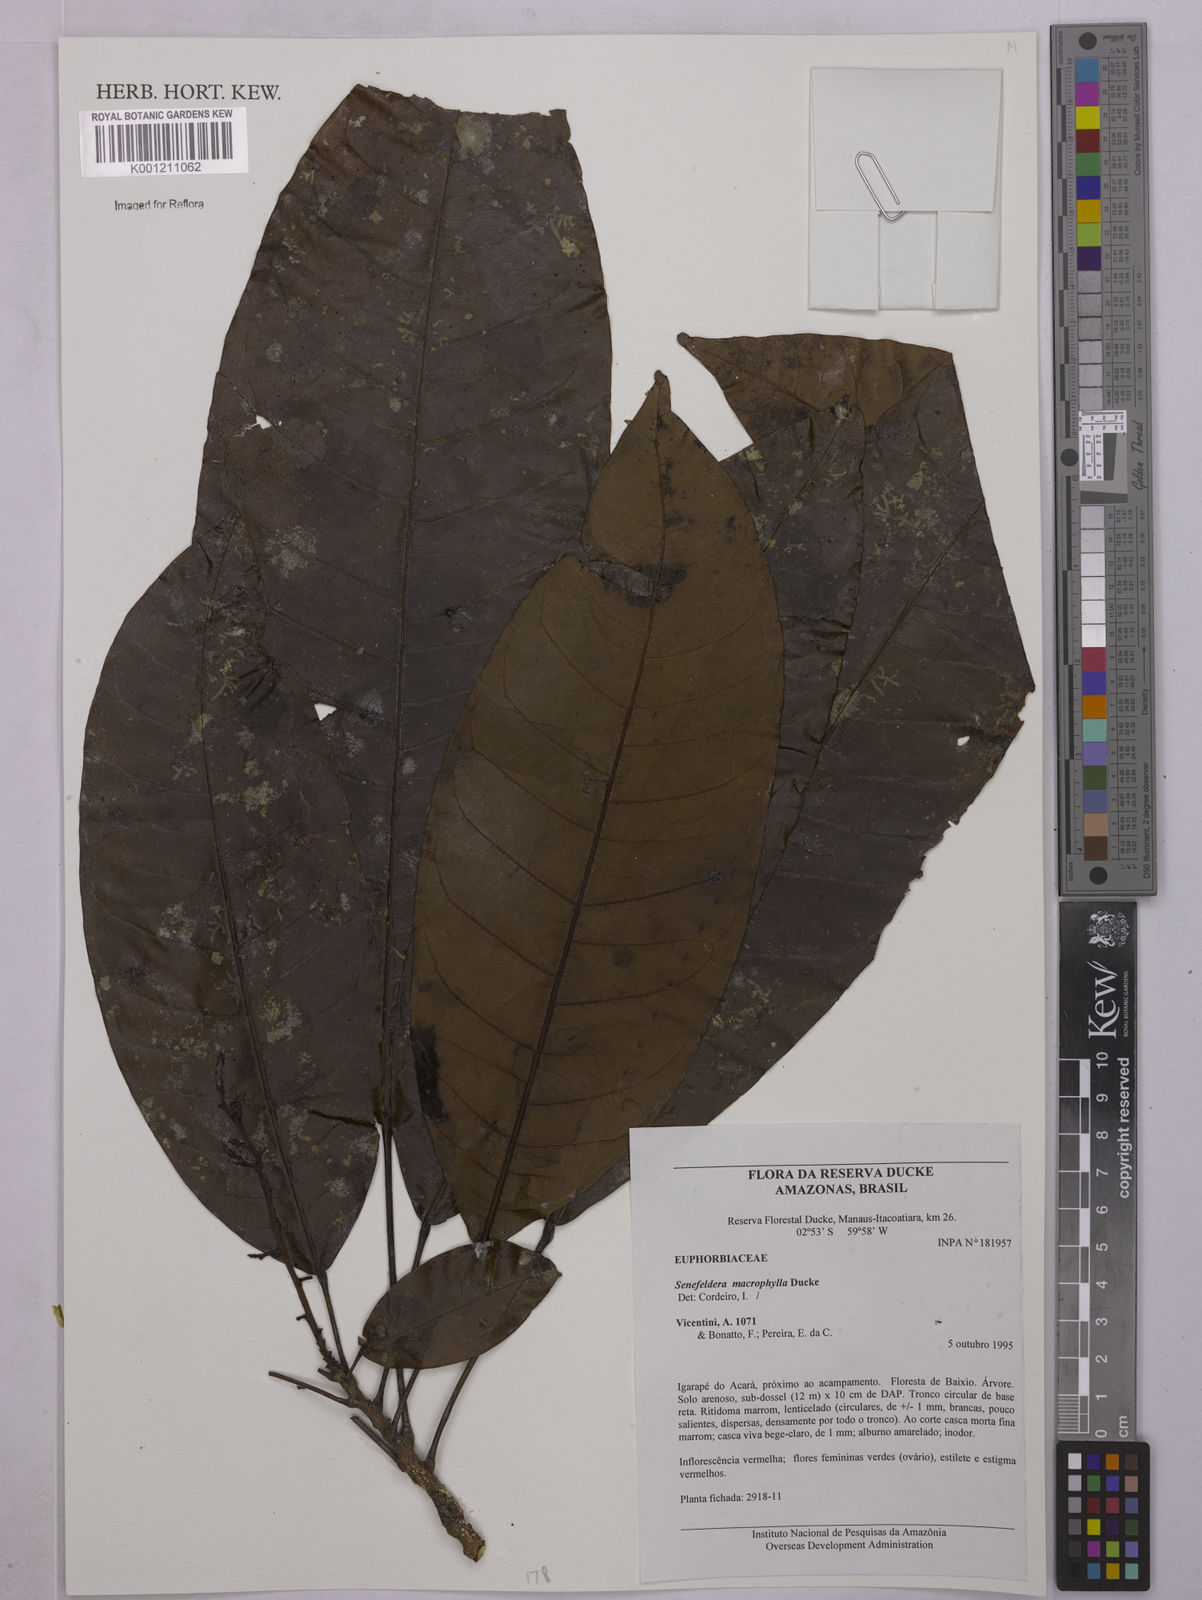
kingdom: Plantae
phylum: Tracheophyta
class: Magnoliopsida
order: Malpighiales
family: Euphorbiaceae
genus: Rhodothyrsus
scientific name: Rhodothyrsus macrophyllus
